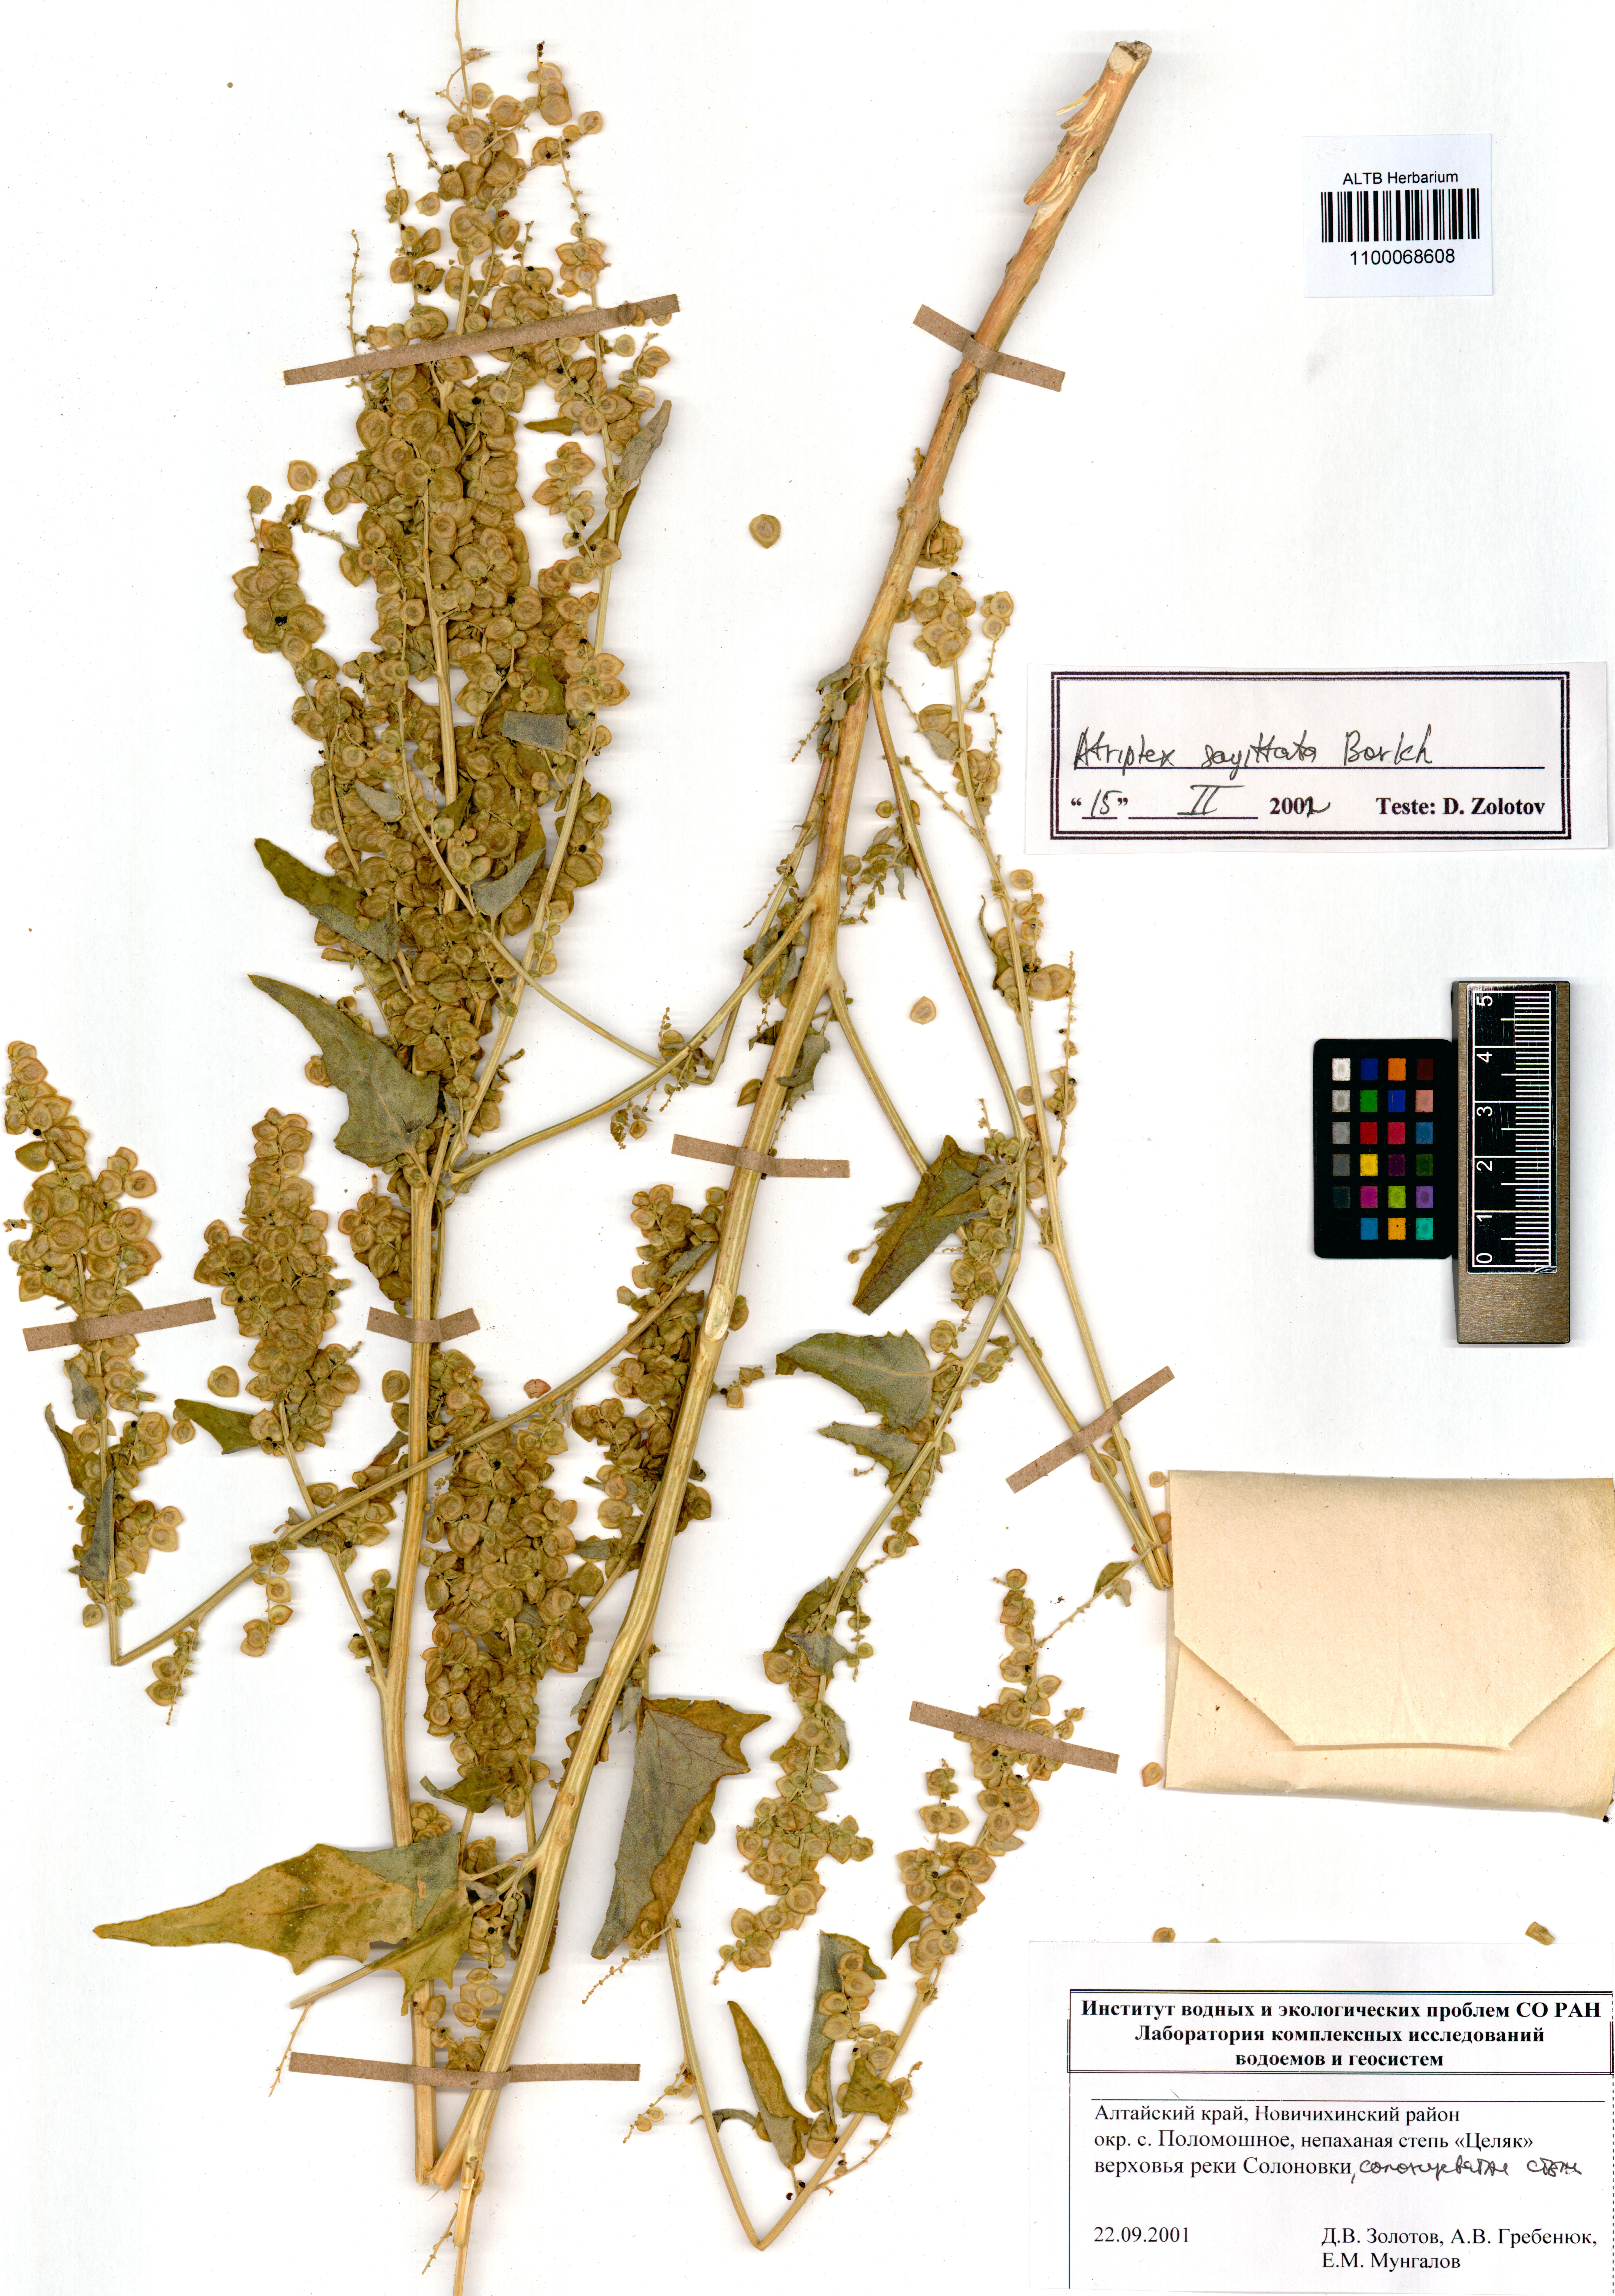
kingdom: Plantae
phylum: Tracheophyta
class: Magnoliopsida
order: Caryophyllales
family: Amaranthaceae
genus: Atriplex
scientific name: Atriplex sagittata
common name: Purple orache
